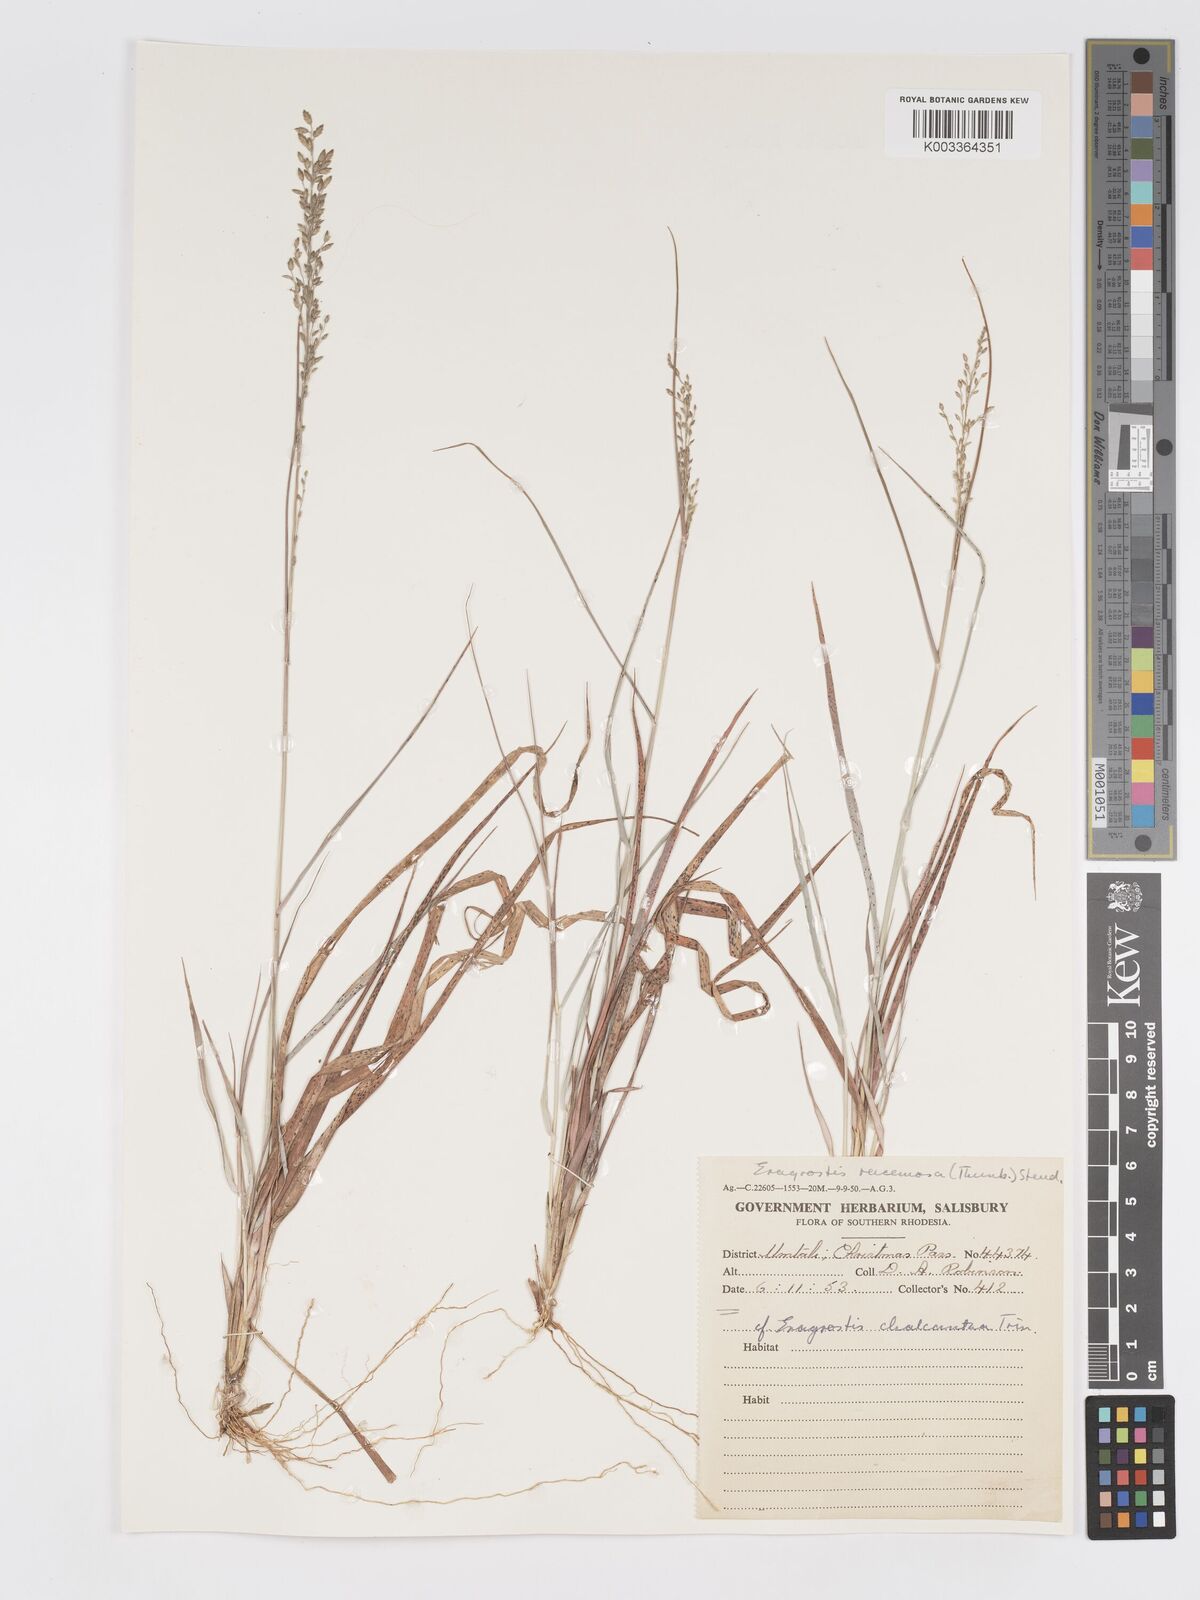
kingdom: Plantae
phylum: Tracheophyta
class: Liliopsida
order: Poales
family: Poaceae
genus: Eragrostis
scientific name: Eragrostis racemosa
